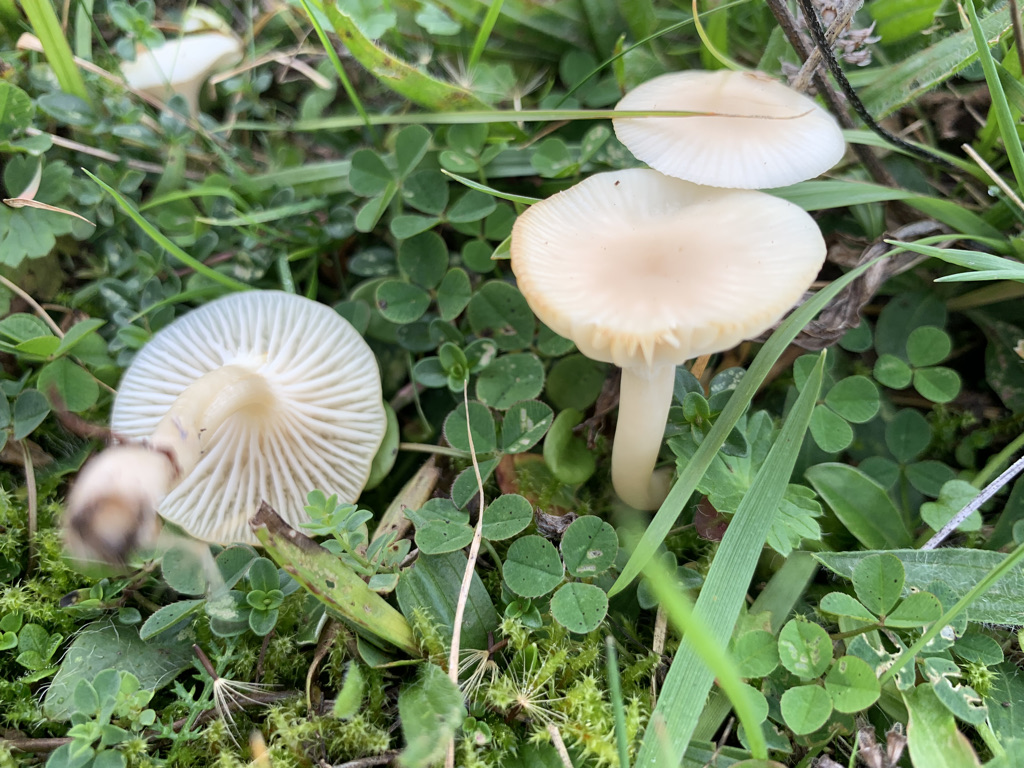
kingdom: Fungi
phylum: Basidiomycota
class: Agaricomycetes
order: Agaricales
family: Hygrophoraceae
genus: Cuphophyllus
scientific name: Cuphophyllus virgineus
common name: snehvid vokshat
